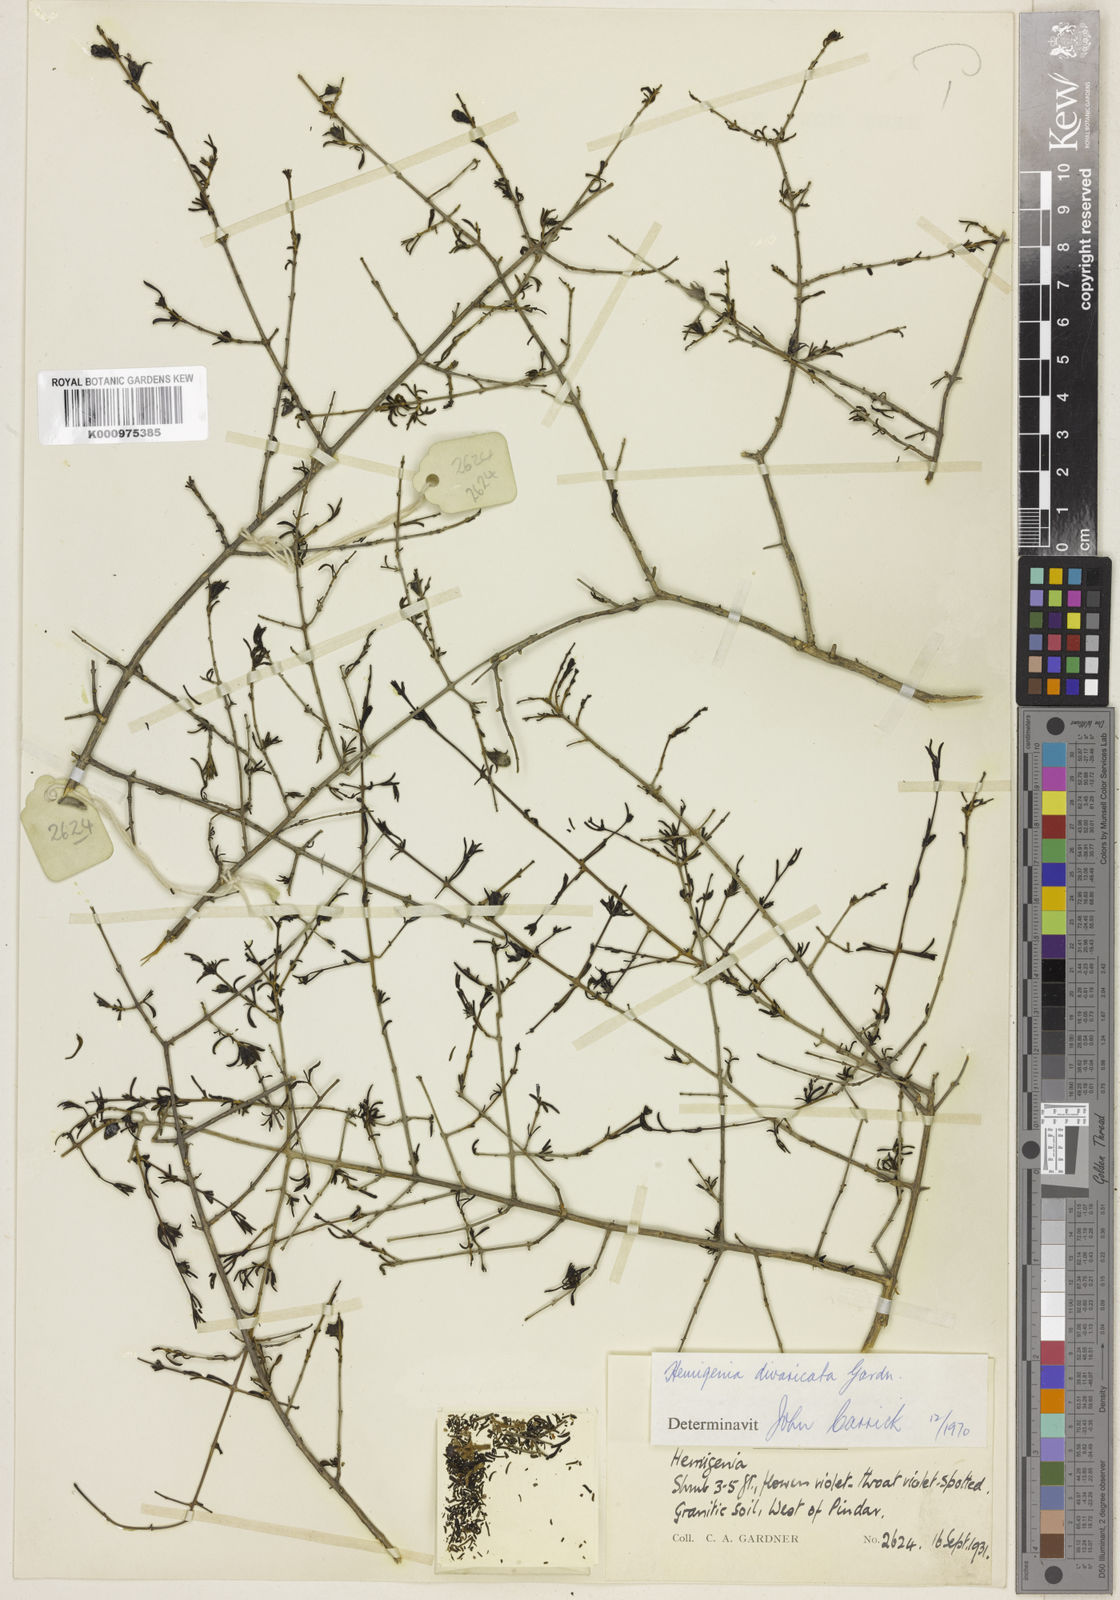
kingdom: Plantae
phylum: Tracheophyta
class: Magnoliopsida
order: Lamiales
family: Lamiaceae
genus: Hemigenia
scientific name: Hemigenia divaricata
